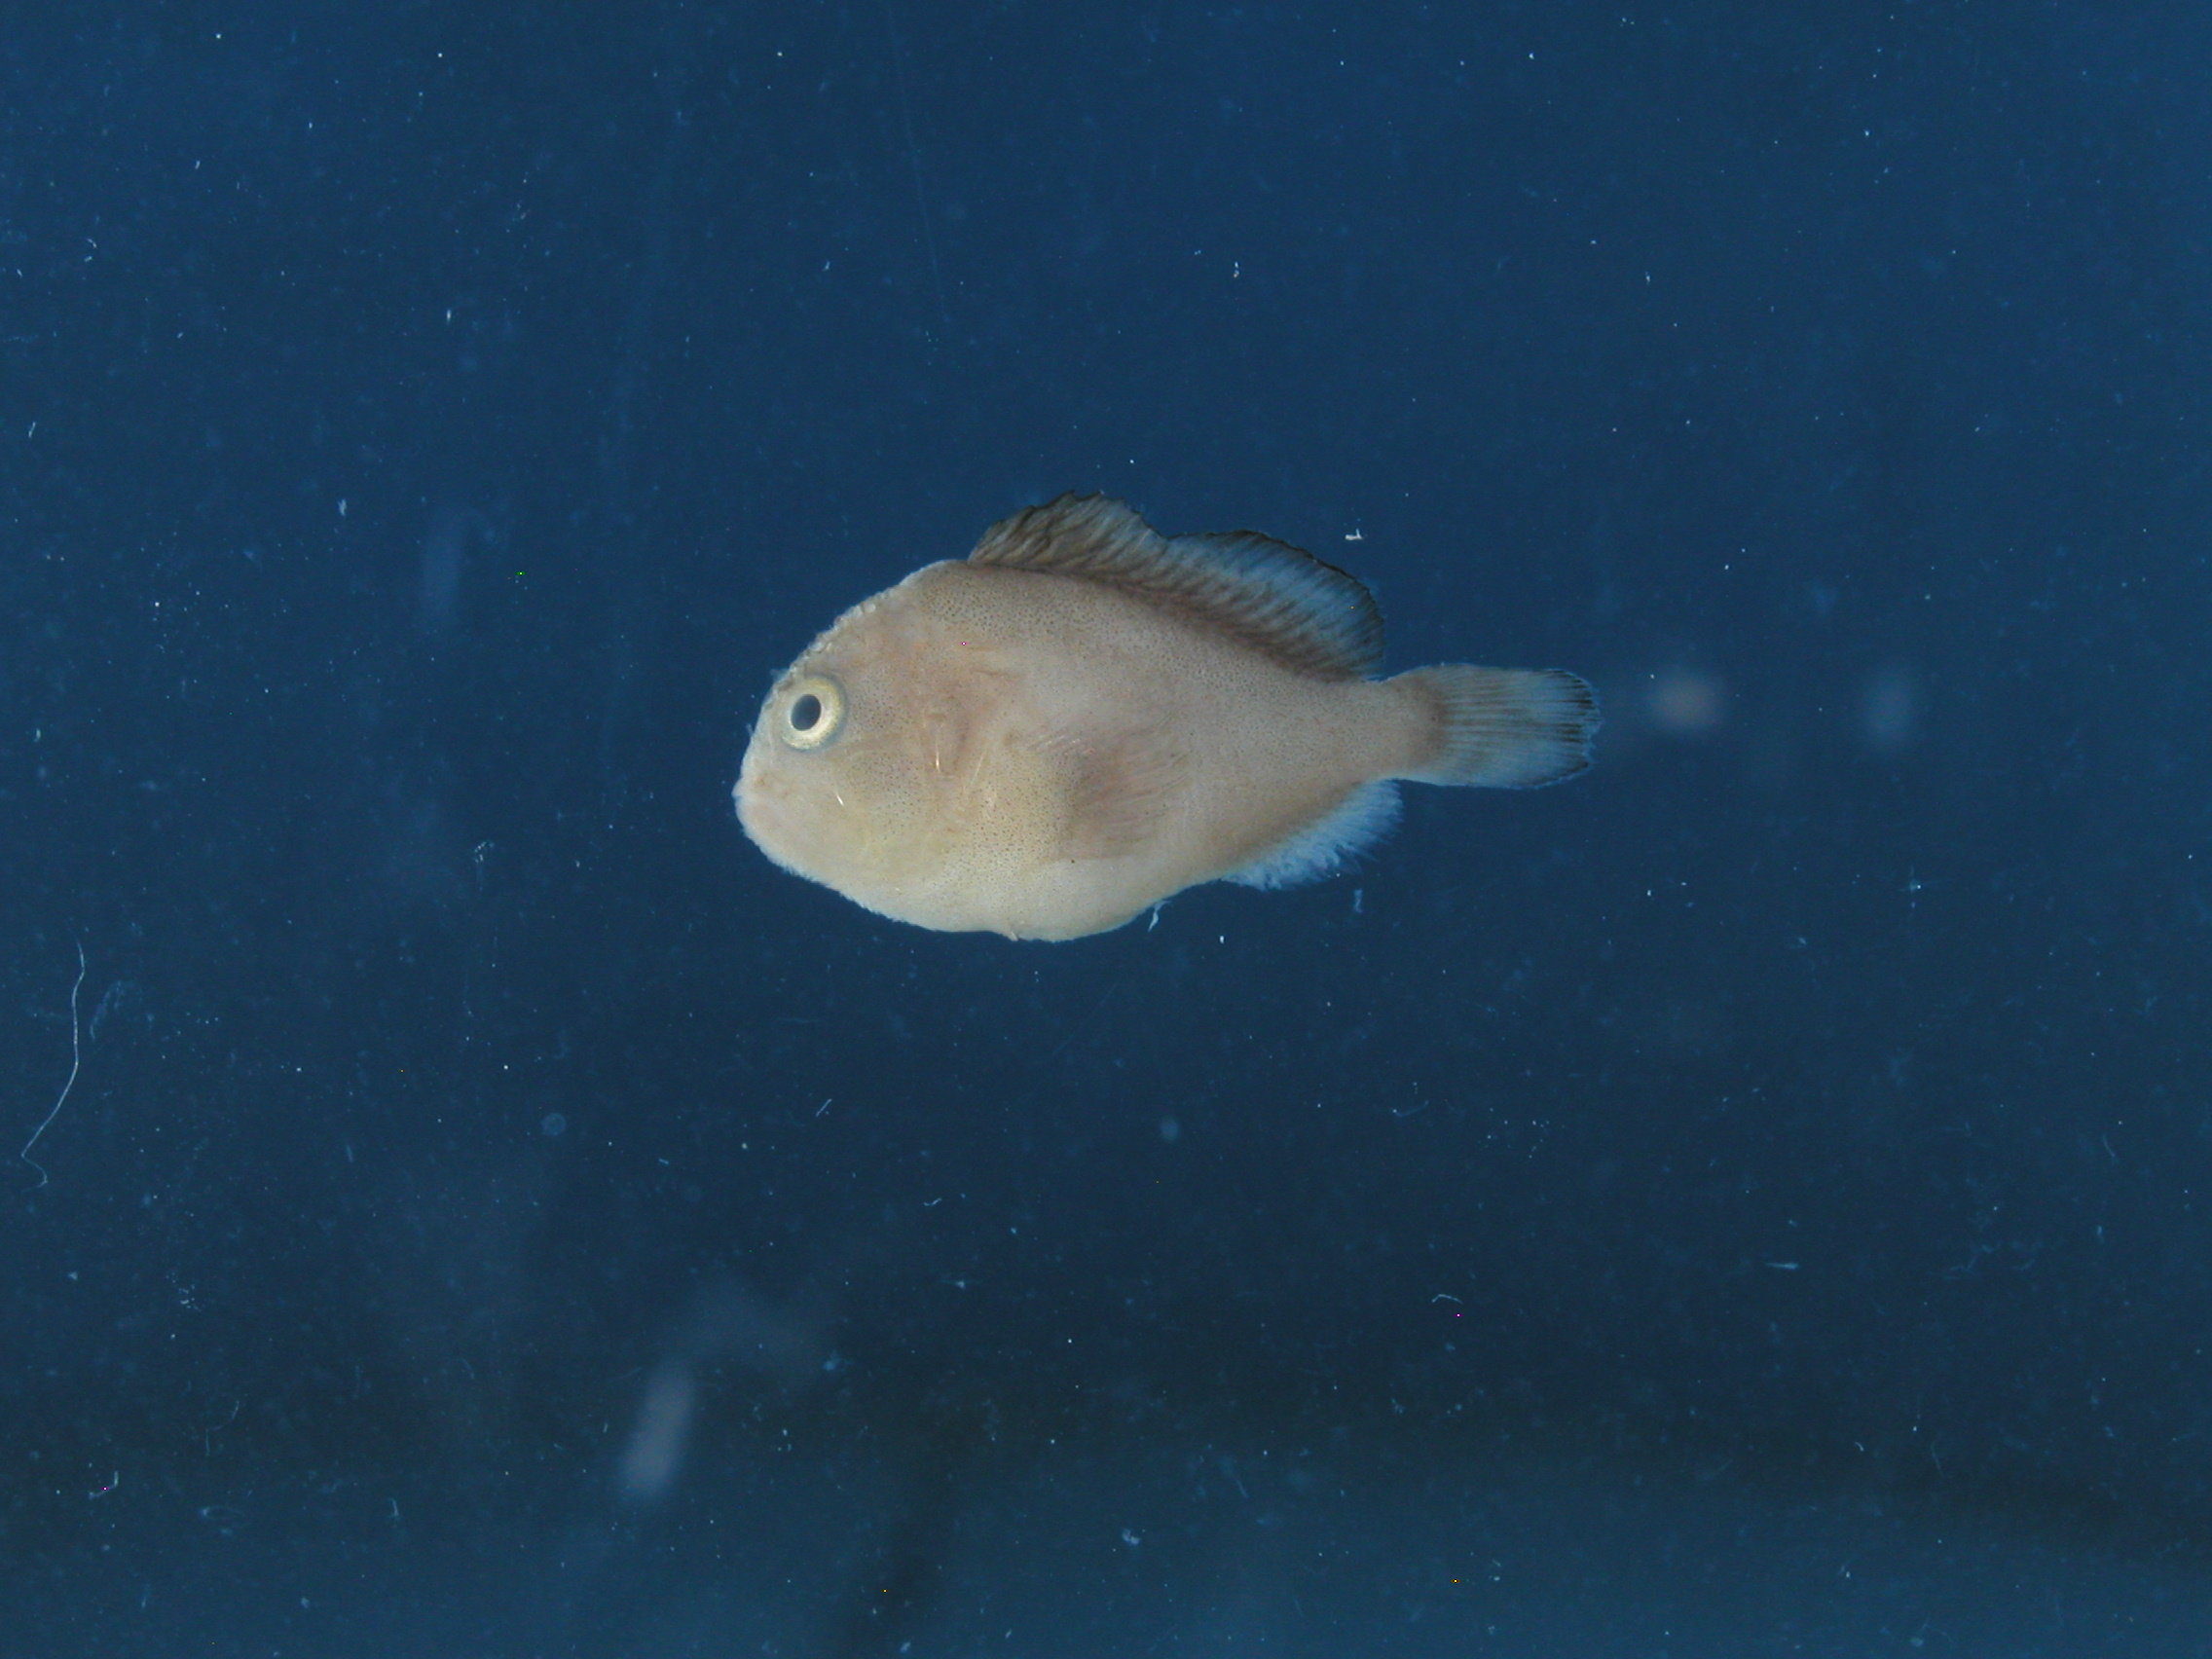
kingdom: Animalia
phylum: Chordata
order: Scorpaeniformes
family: Scorpaenidae
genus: Caracanthus
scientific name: Caracanthus unipinna
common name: Coral croucher
